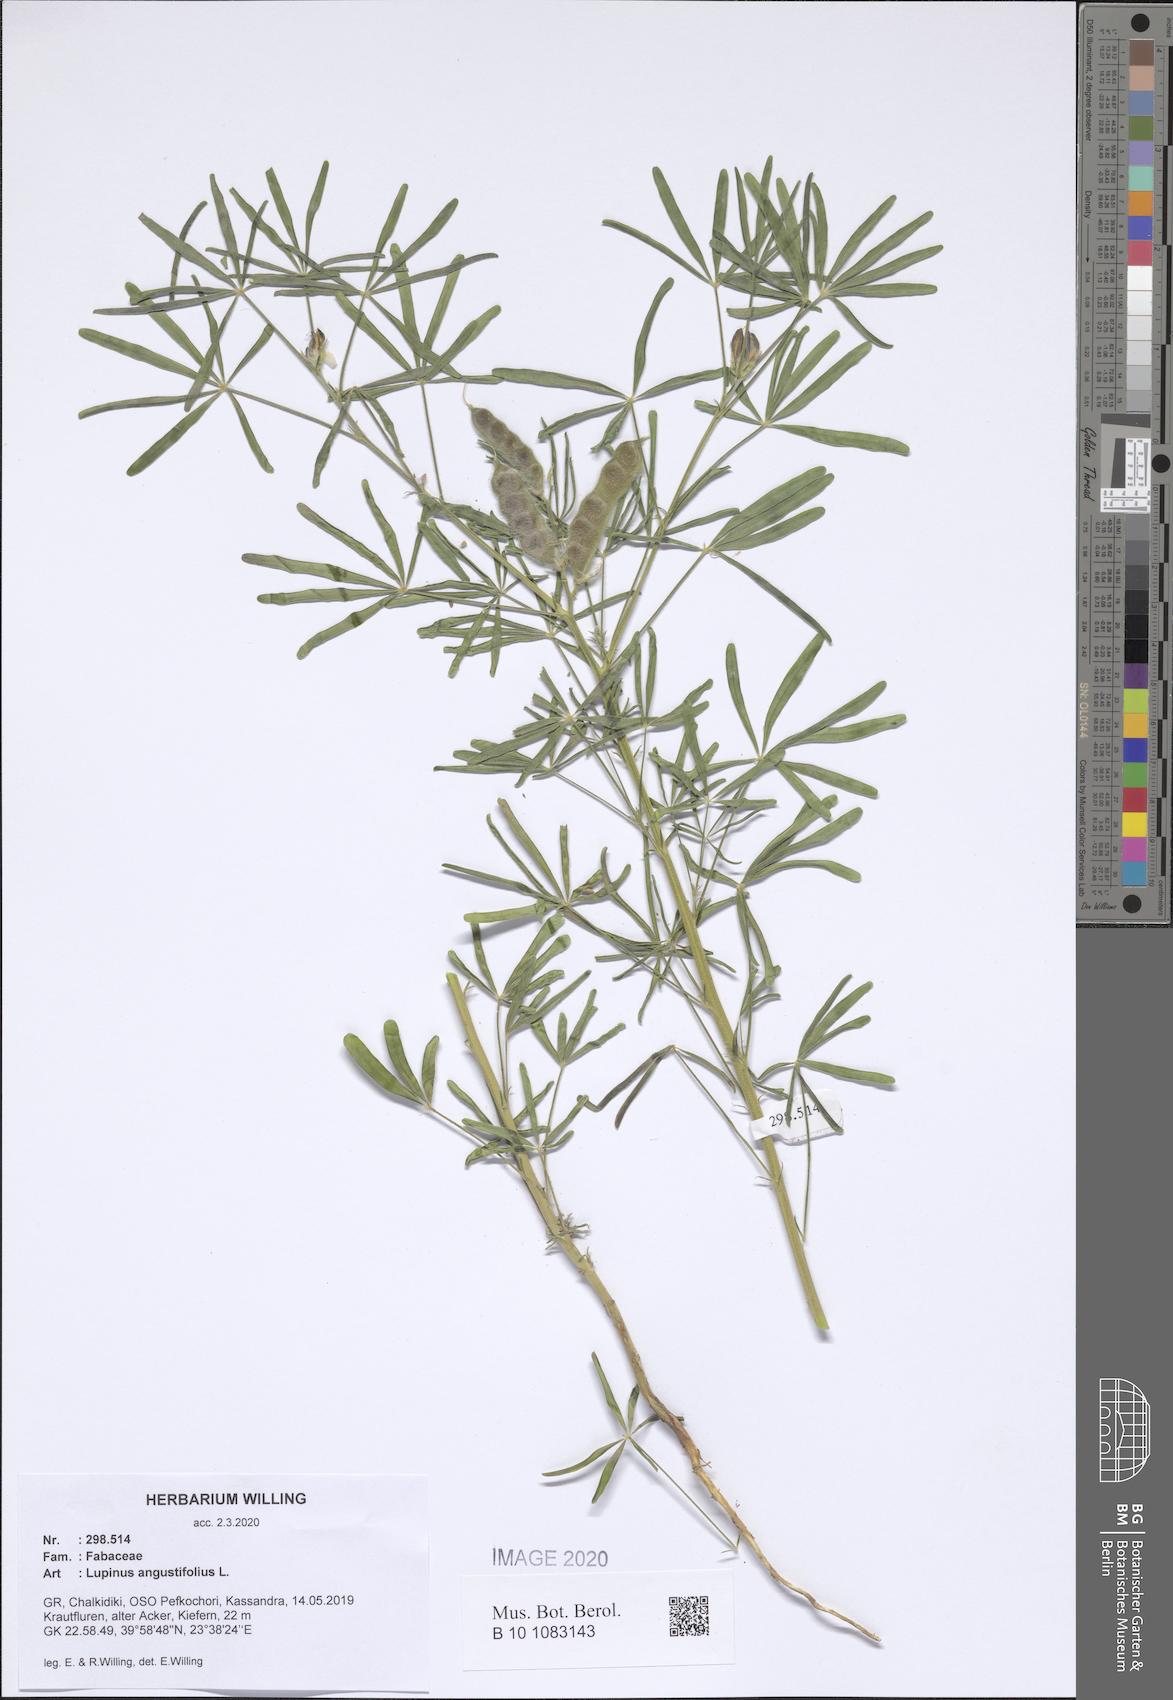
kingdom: Plantae
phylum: Tracheophyta
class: Magnoliopsida
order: Fabales
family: Fabaceae
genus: Lupinus
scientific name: Lupinus angustifolius
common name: Narrow-leaved lupin
